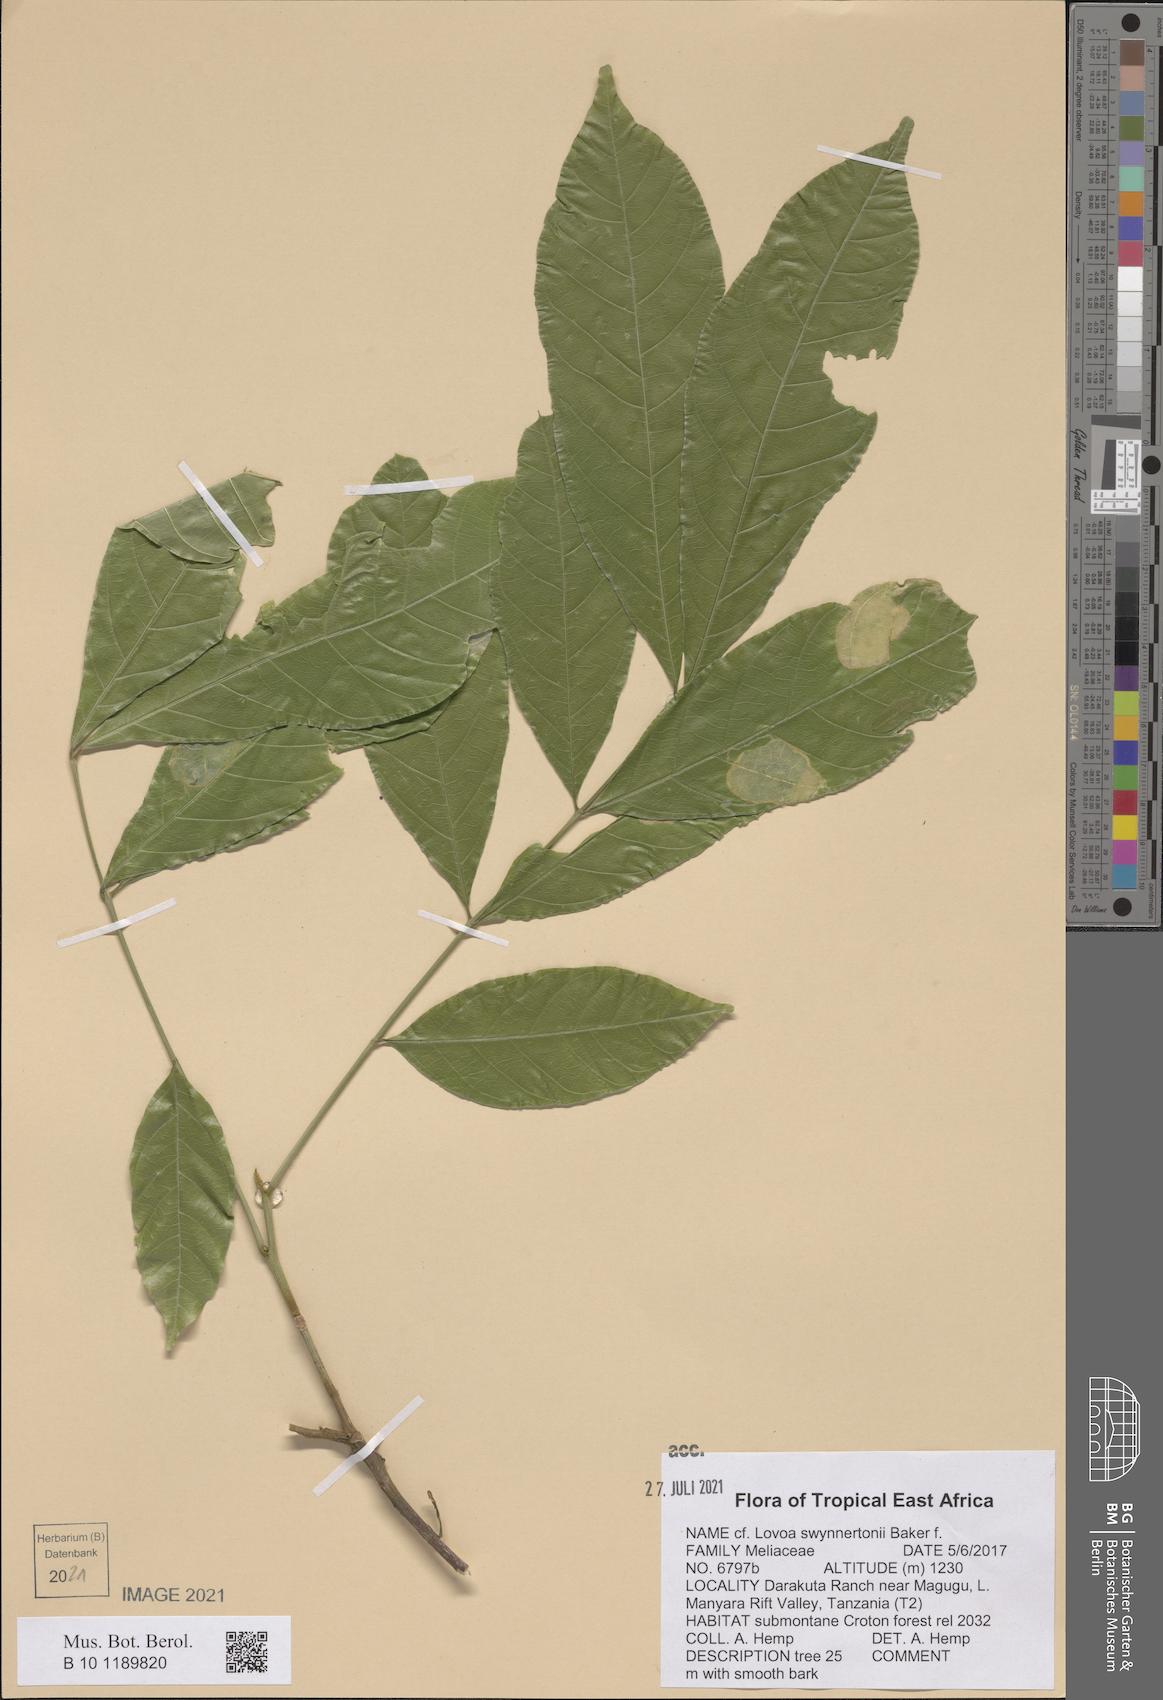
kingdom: Plantae
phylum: Tracheophyta
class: Magnoliopsida
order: Sapindales
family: Meliaceae
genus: Lovoa
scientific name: Lovoa swynnertonii
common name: Brown mahogany
